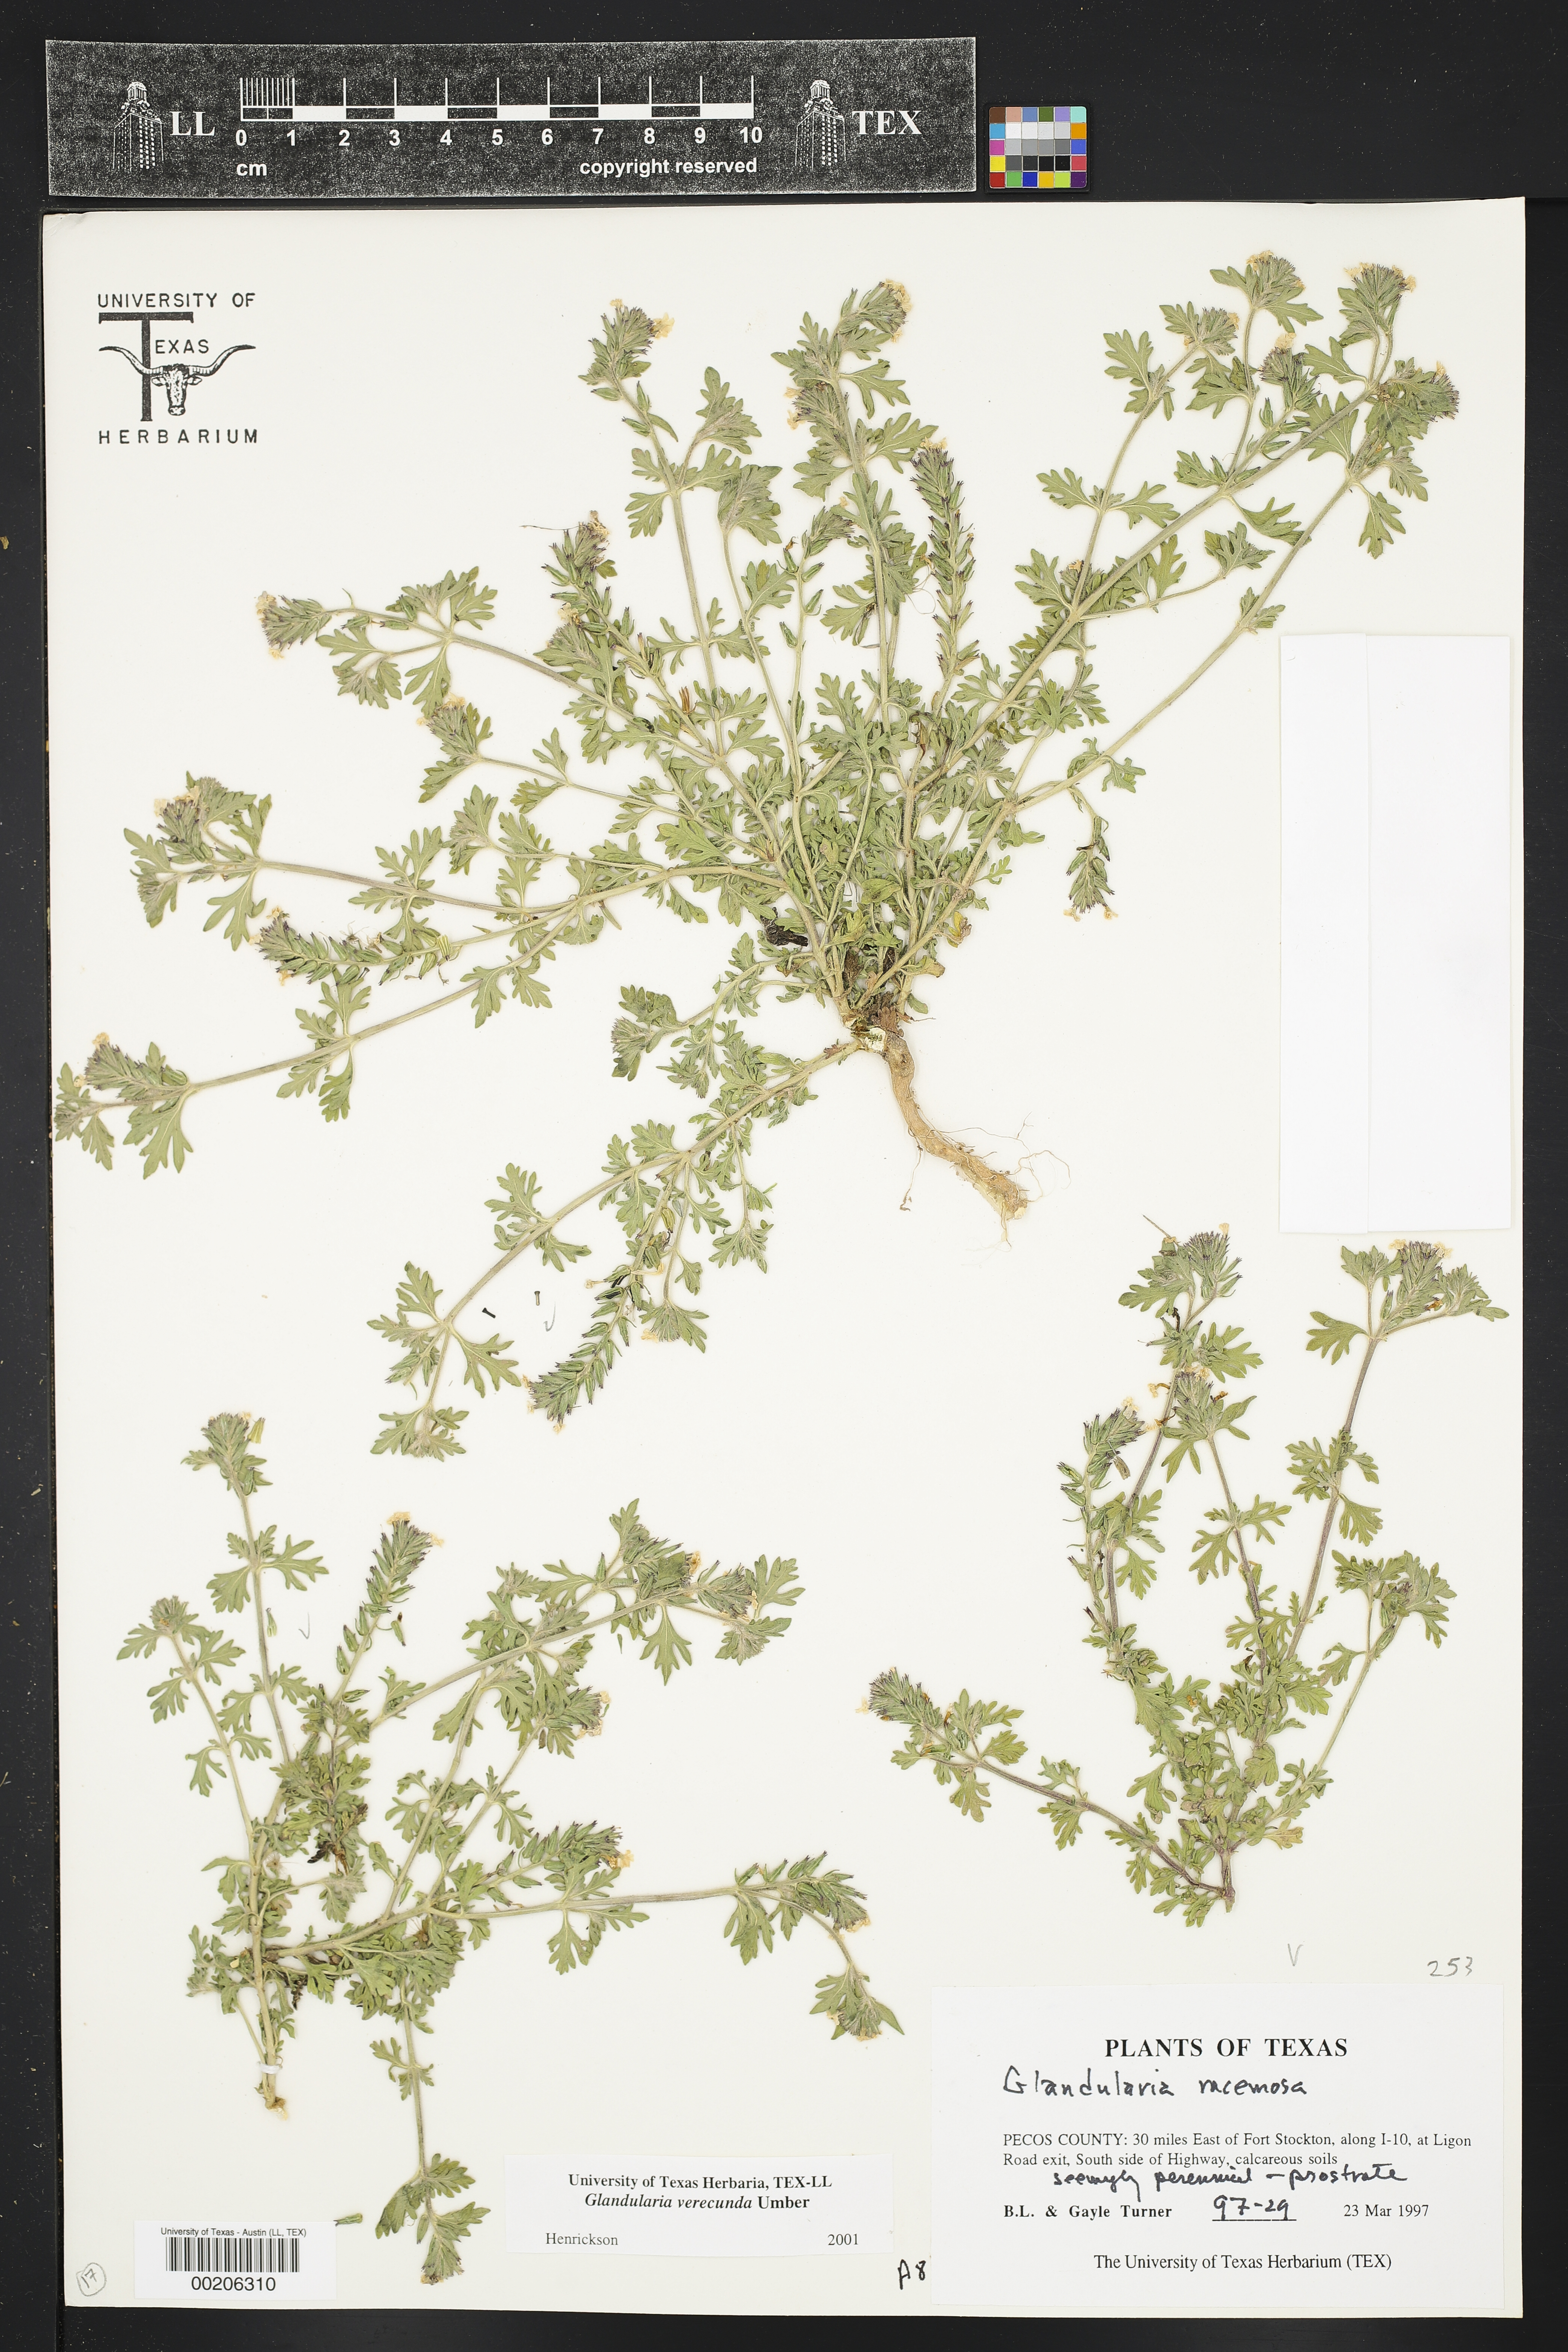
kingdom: Plantae
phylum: Tracheophyta
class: Magnoliopsida
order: Lamiales
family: Verbenaceae
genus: Verbena
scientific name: Verbena verecunda
